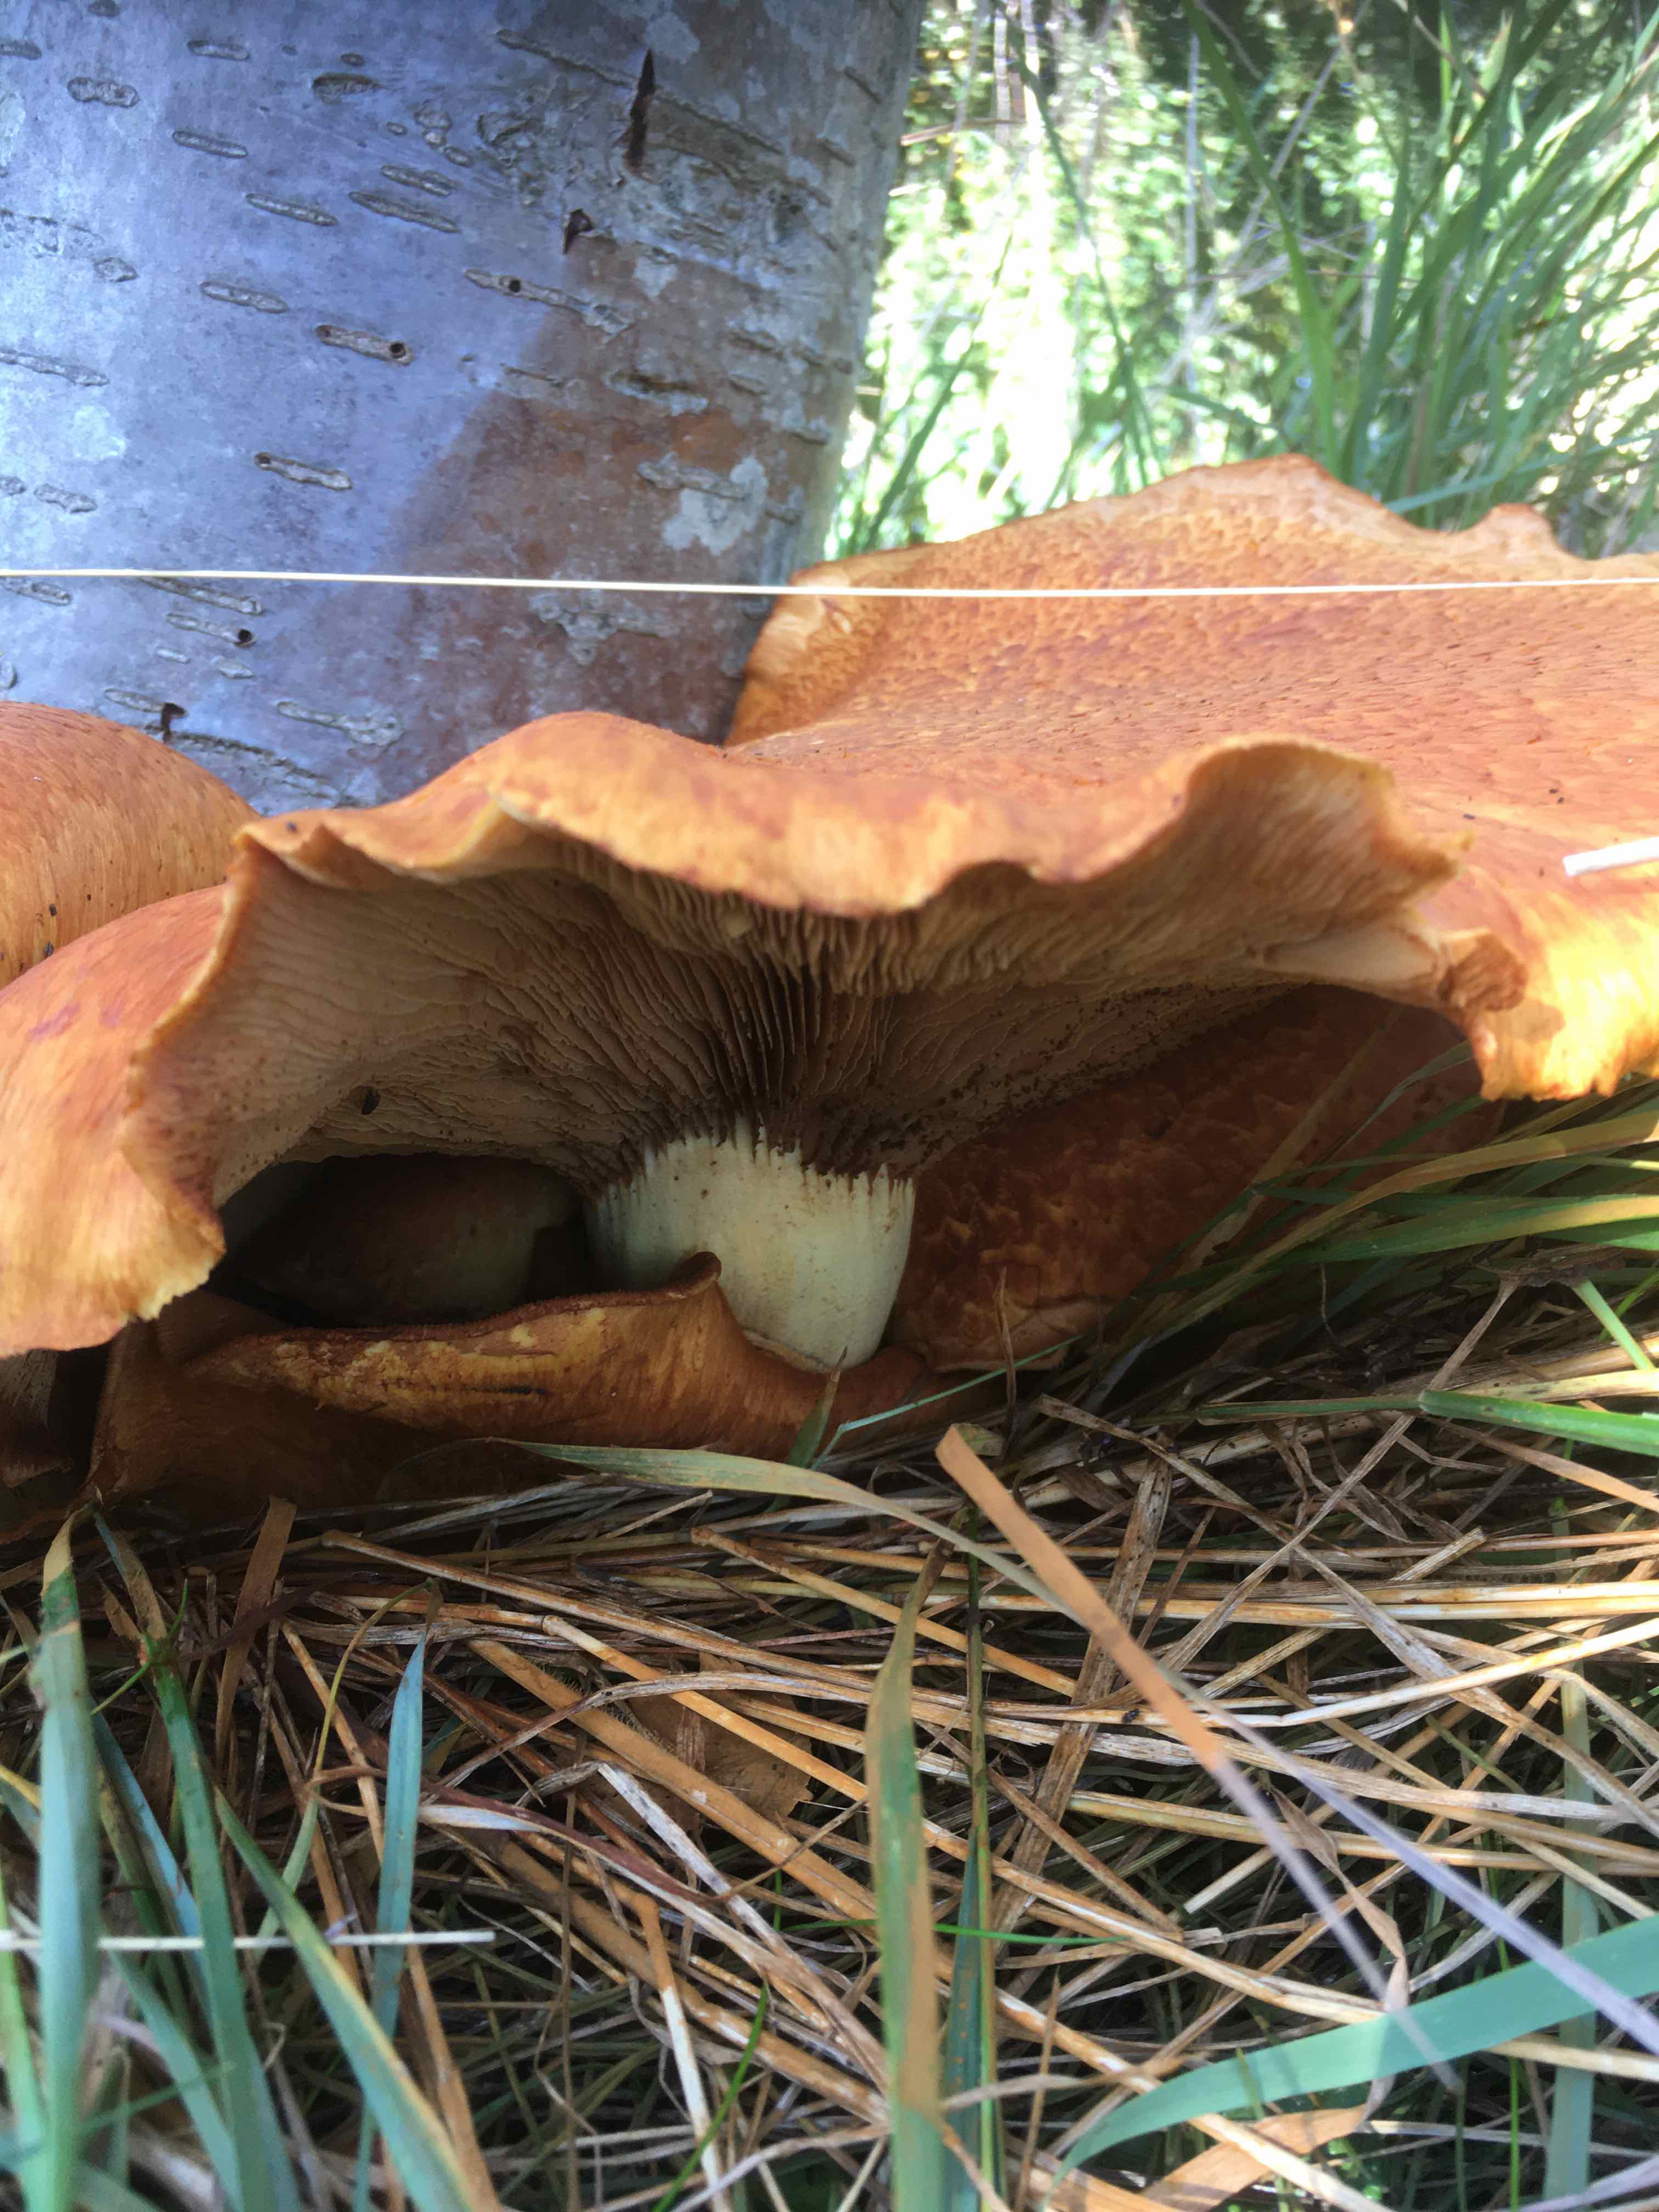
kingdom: Fungi
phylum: Basidiomycota
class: Agaricomycetes
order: Agaricales
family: Hymenogastraceae
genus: Gymnopilus
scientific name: Gymnopilus spectabilis
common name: fibret flammehat
